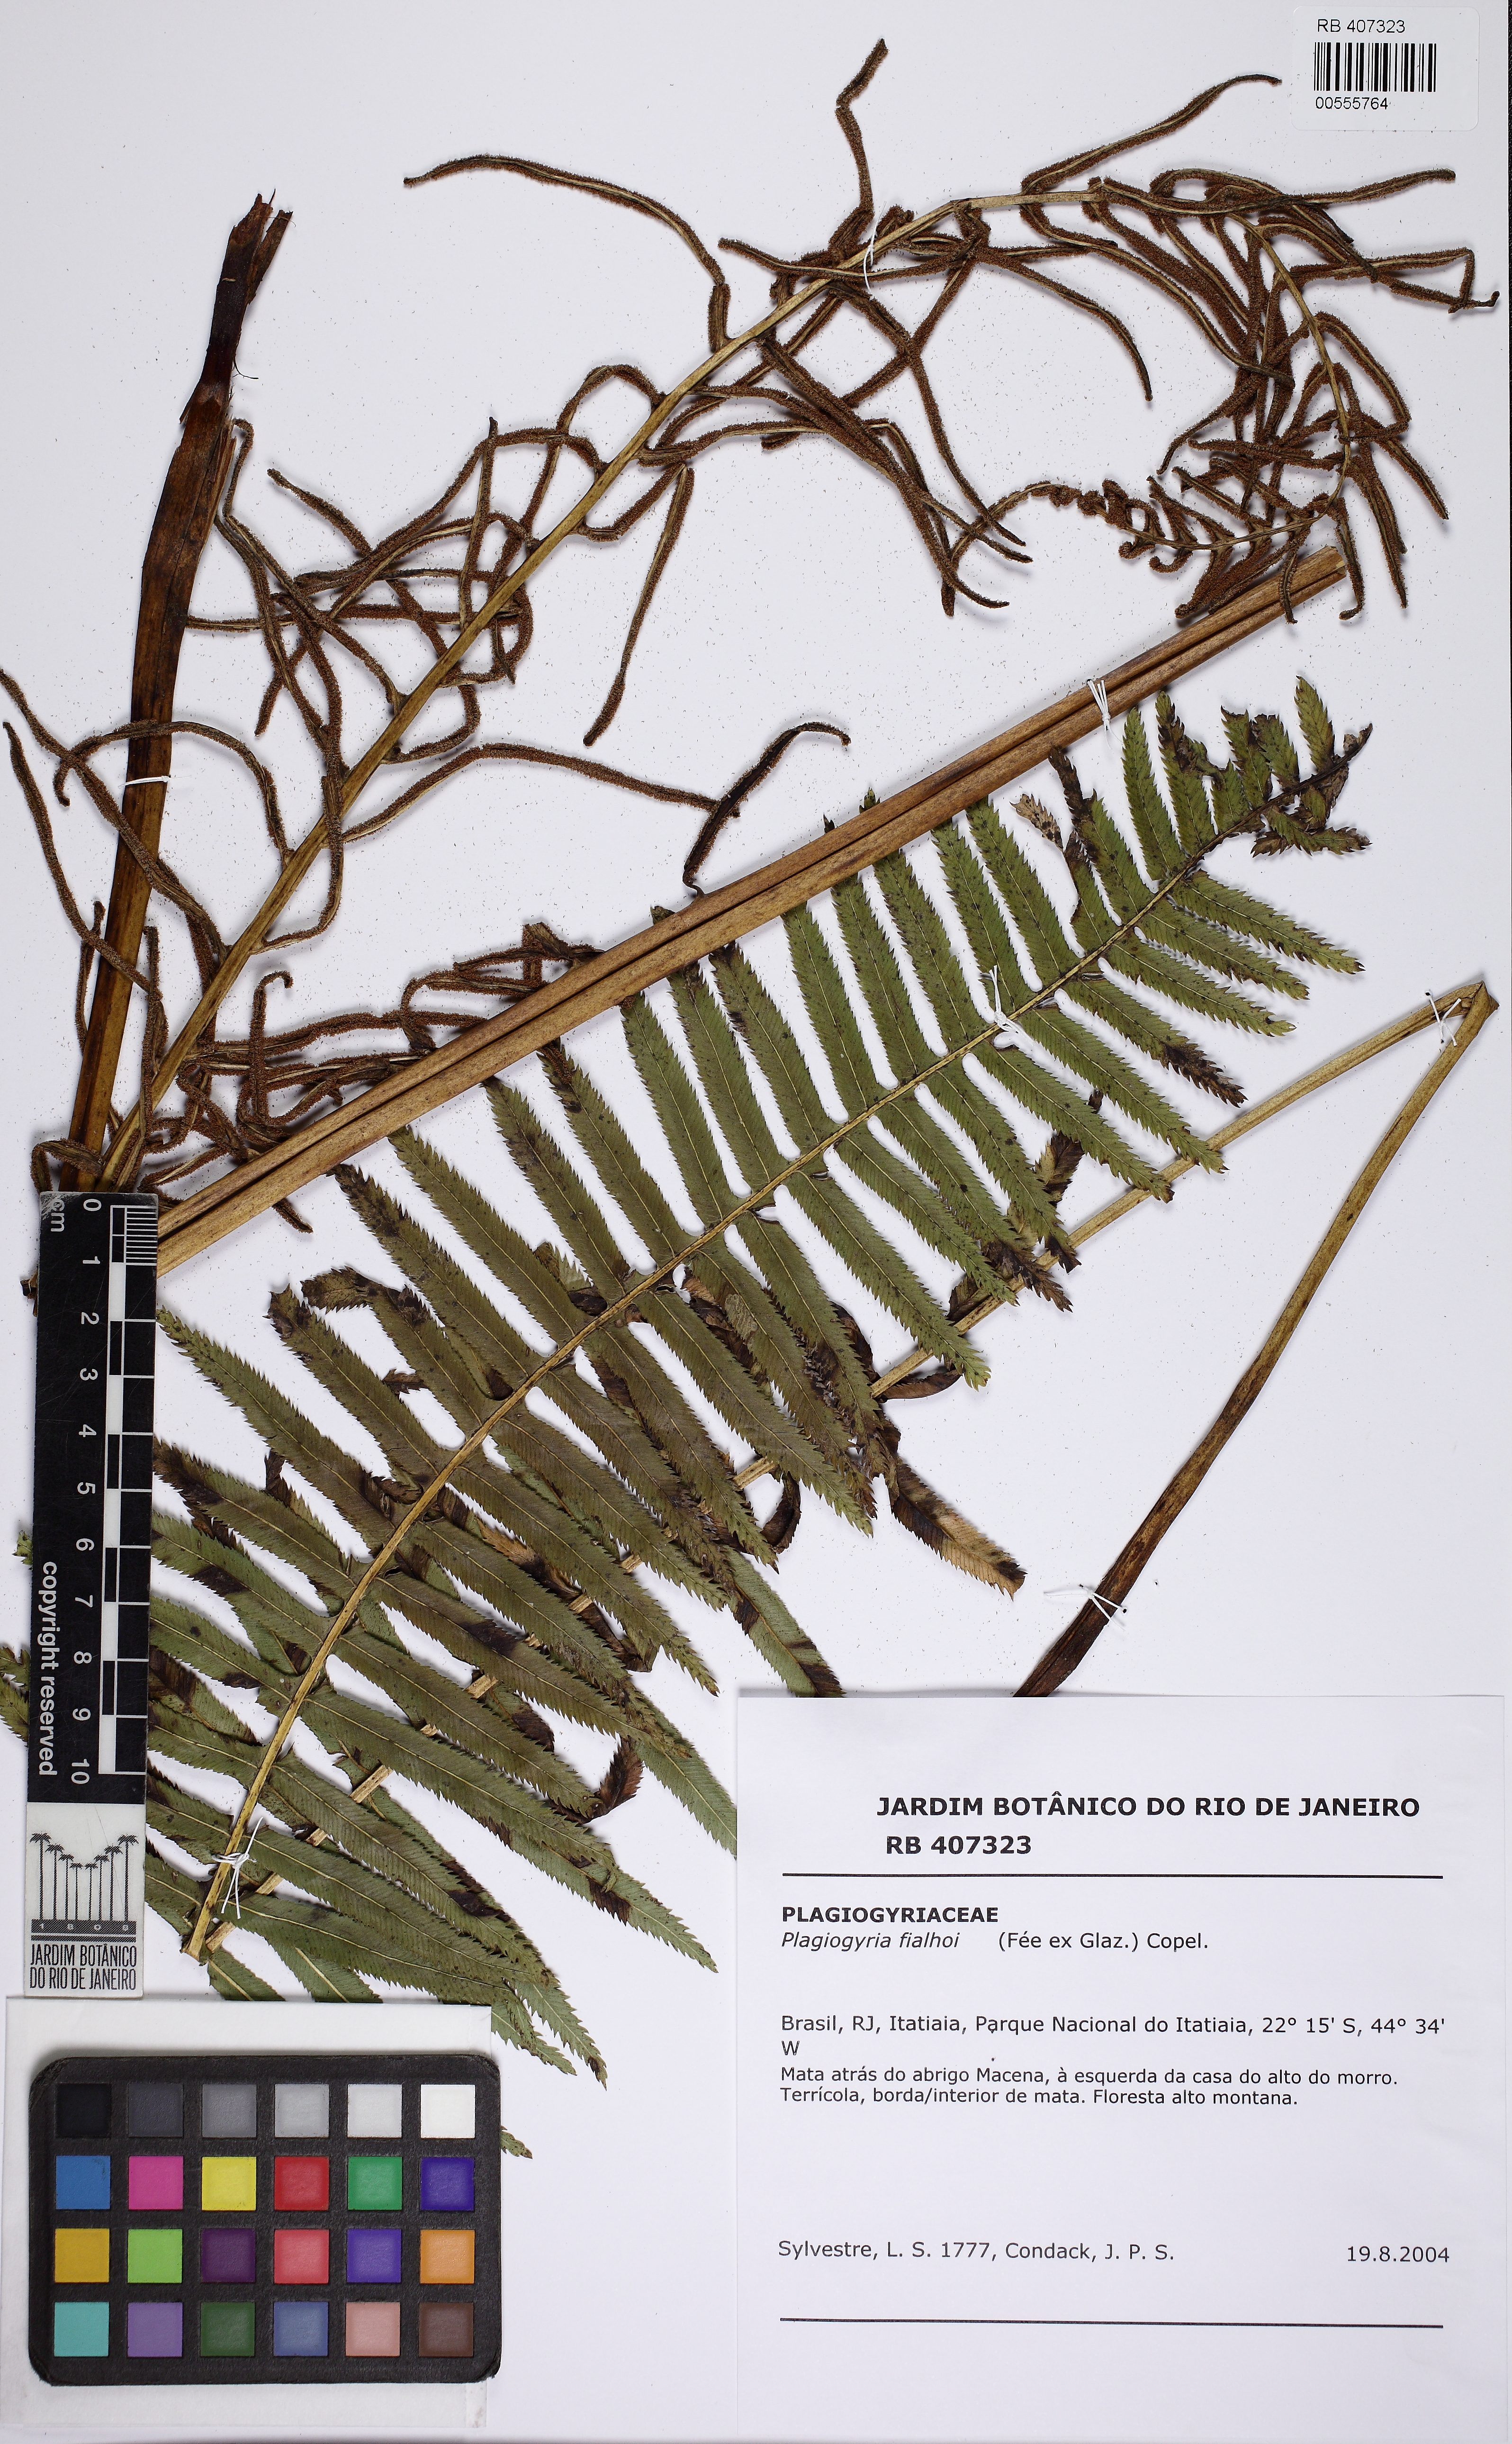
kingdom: Plantae
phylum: Tracheophyta
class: Polypodiopsida
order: Cyatheales
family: Plagiogyriaceae
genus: Plagiogyria
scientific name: Plagiogyria pectinata
